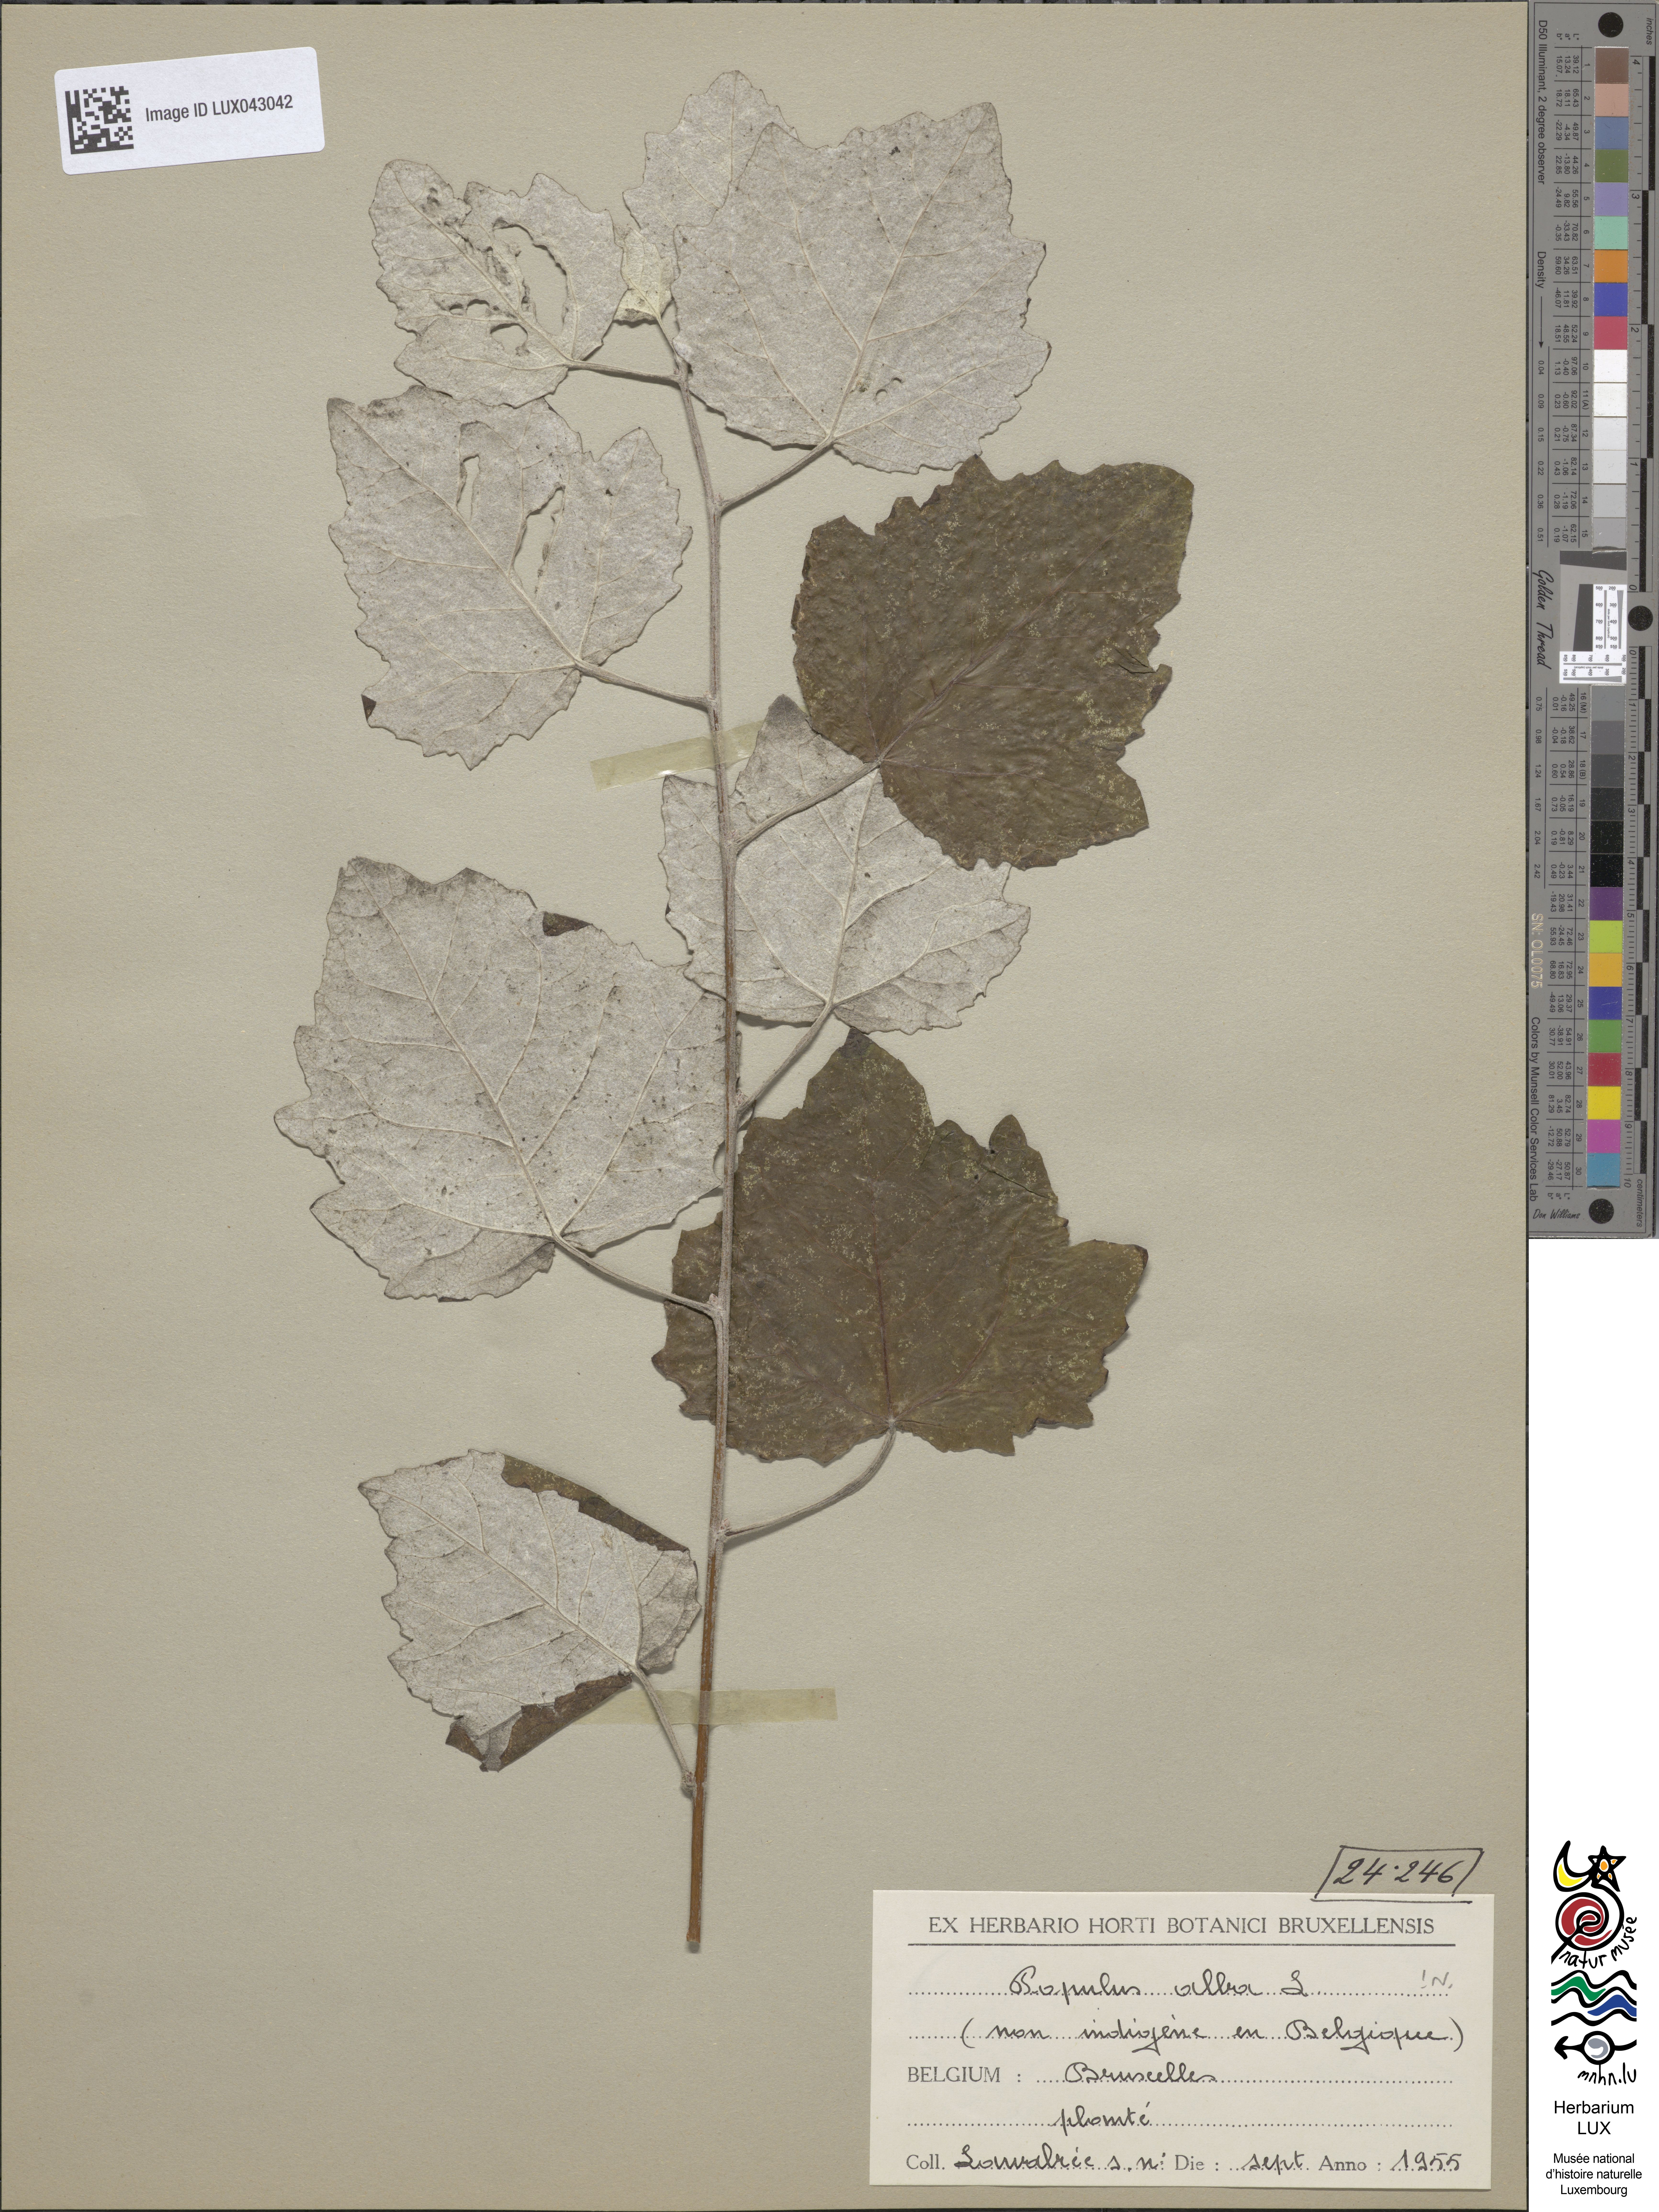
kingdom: Plantae
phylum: Tracheophyta
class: Magnoliopsida
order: Malpighiales
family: Salicaceae
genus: Populus
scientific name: Populus alba
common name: White poplar
